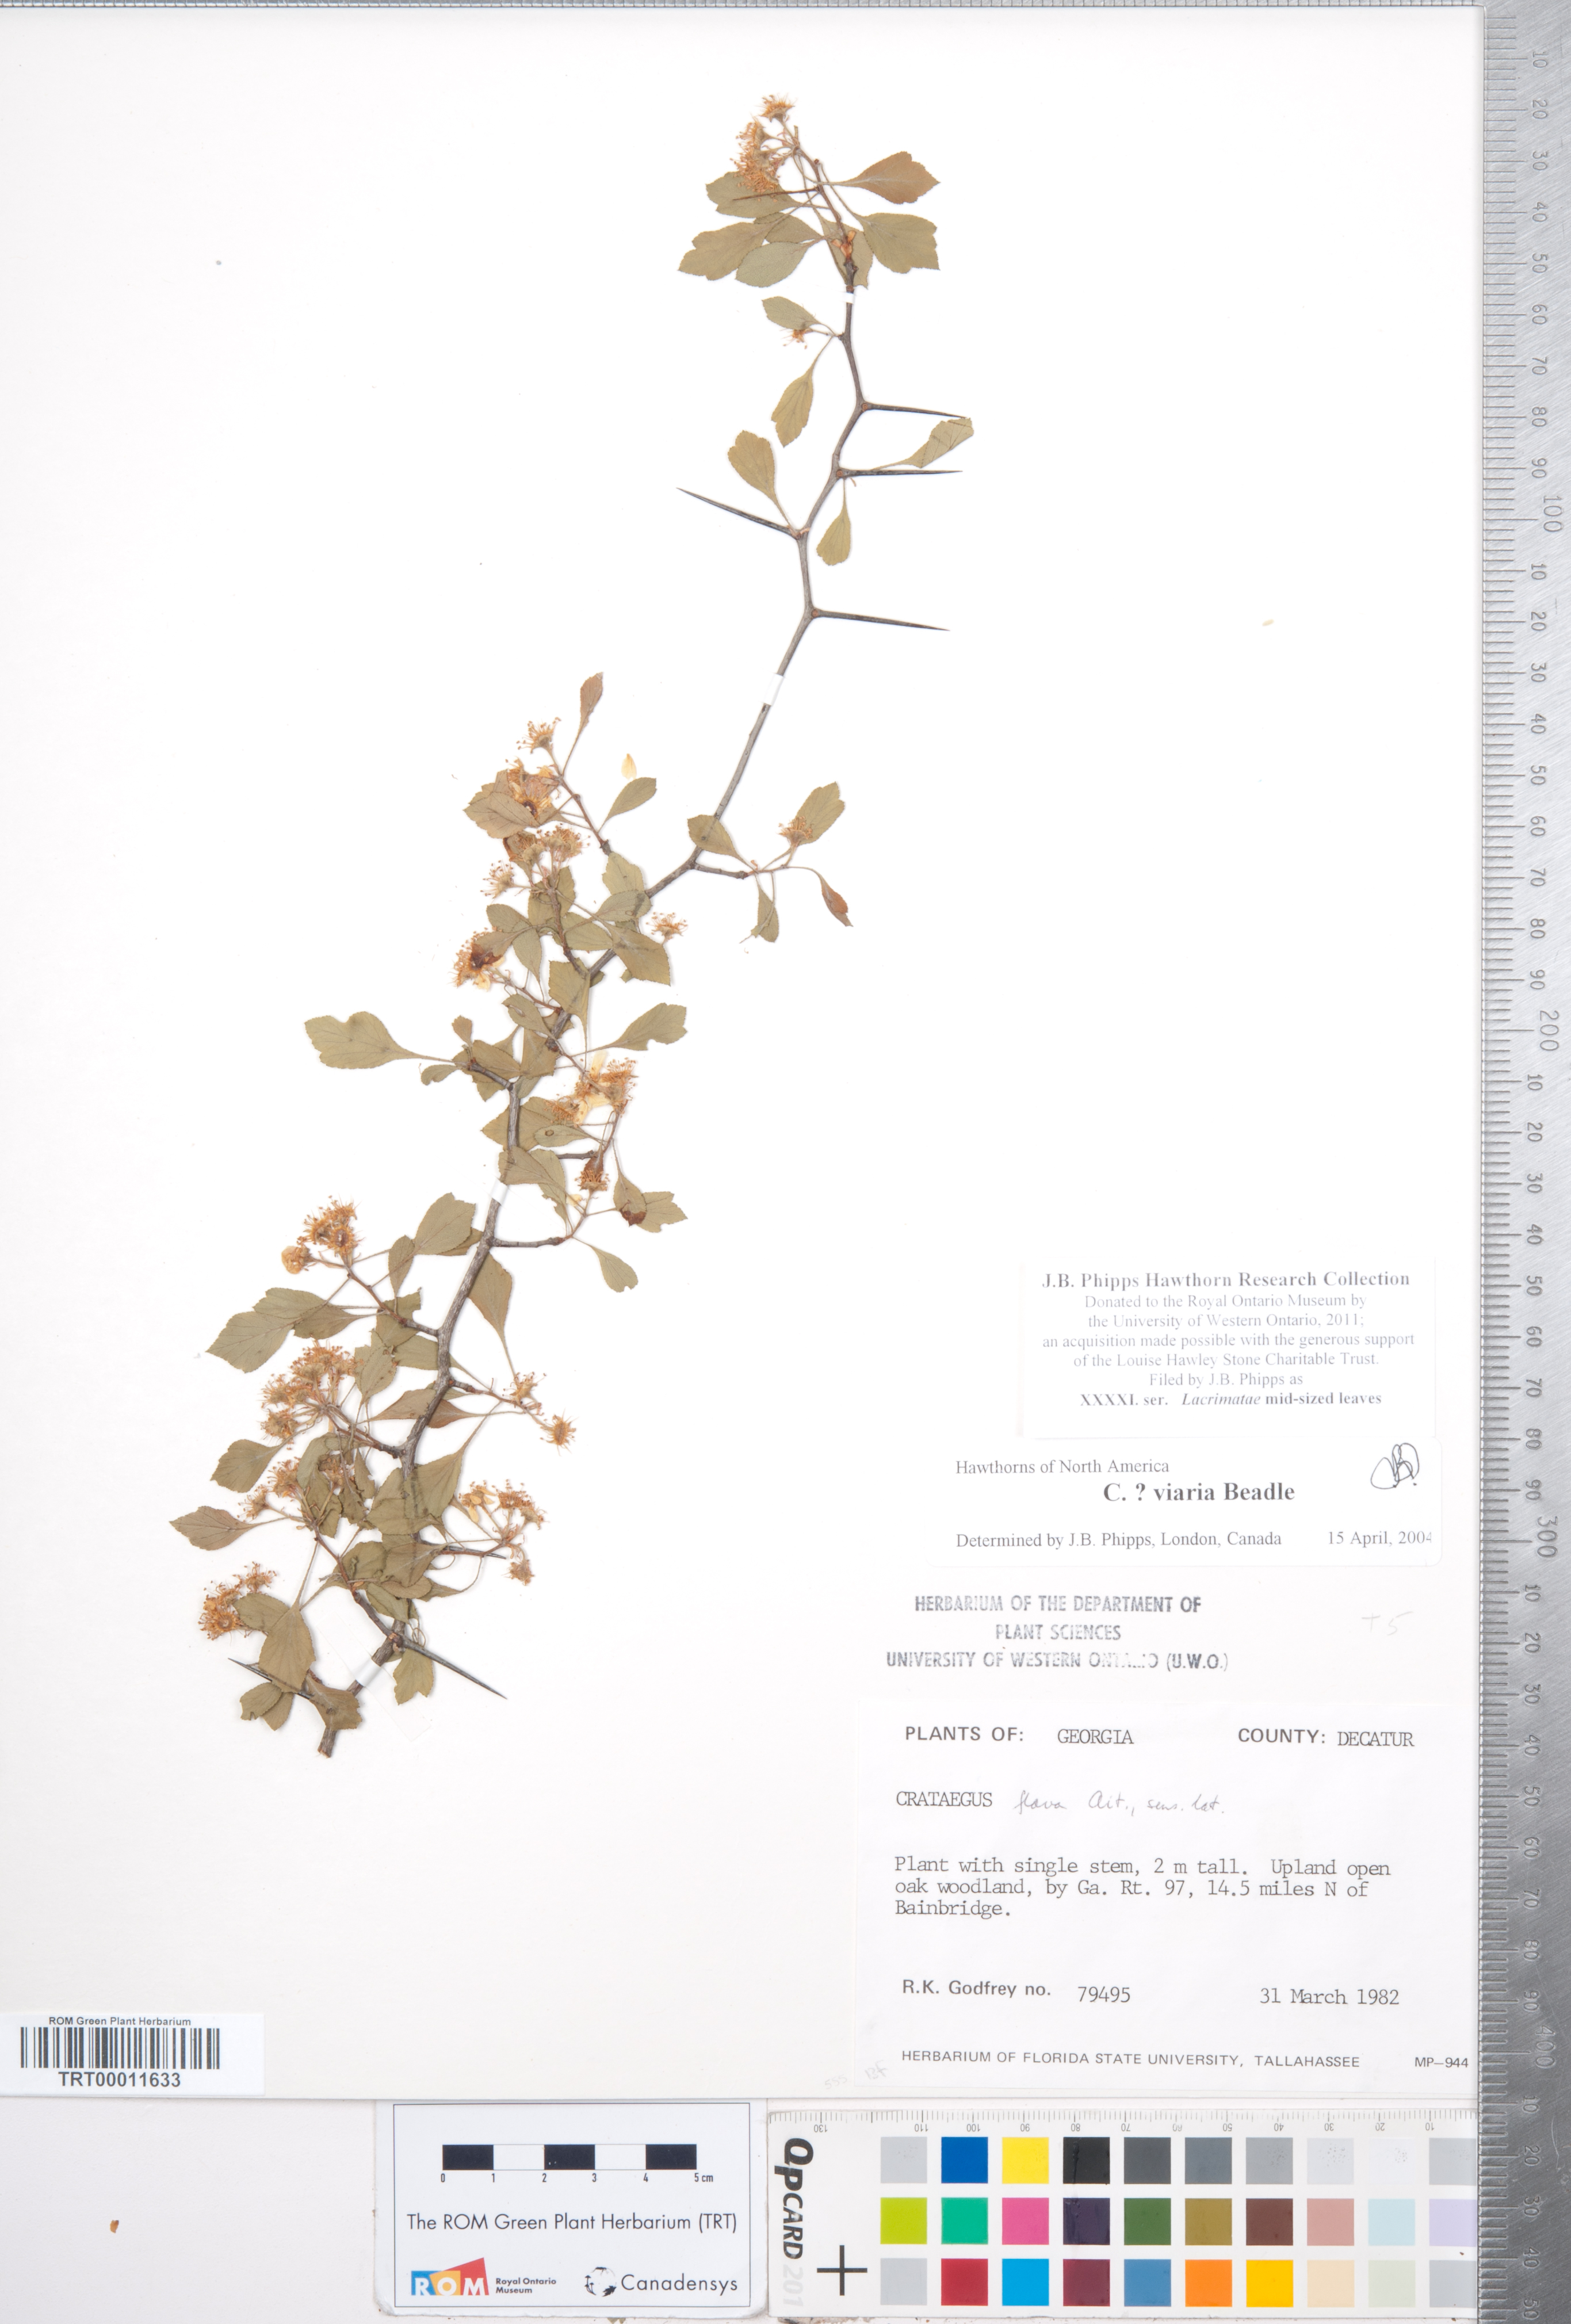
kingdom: Plantae
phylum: Tracheophyta
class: Magnoliopsida
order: Rosales
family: Rosaceae
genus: Crataegus
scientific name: Crataegus
